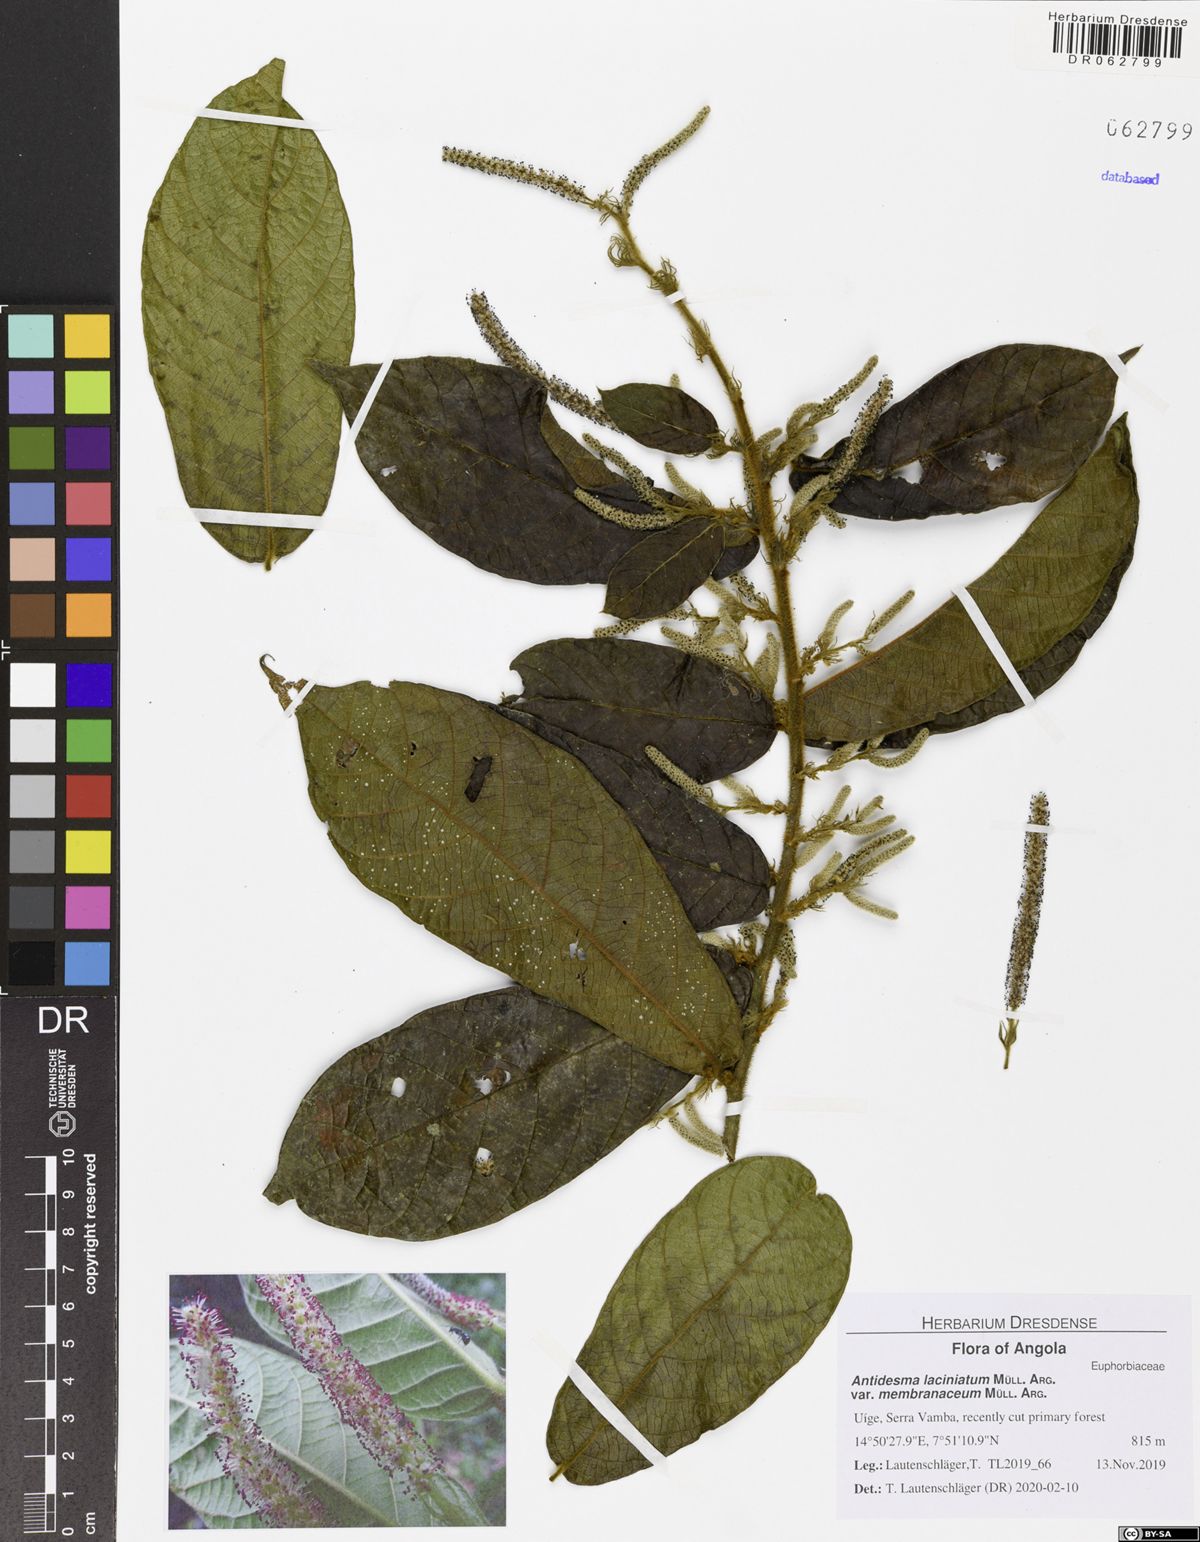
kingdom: Plantae
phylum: Tracheophyta
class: Magnoliopsida
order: Malpighiales
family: Phyllanthaceae
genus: Antidesma
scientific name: Antidesma laciniatum
